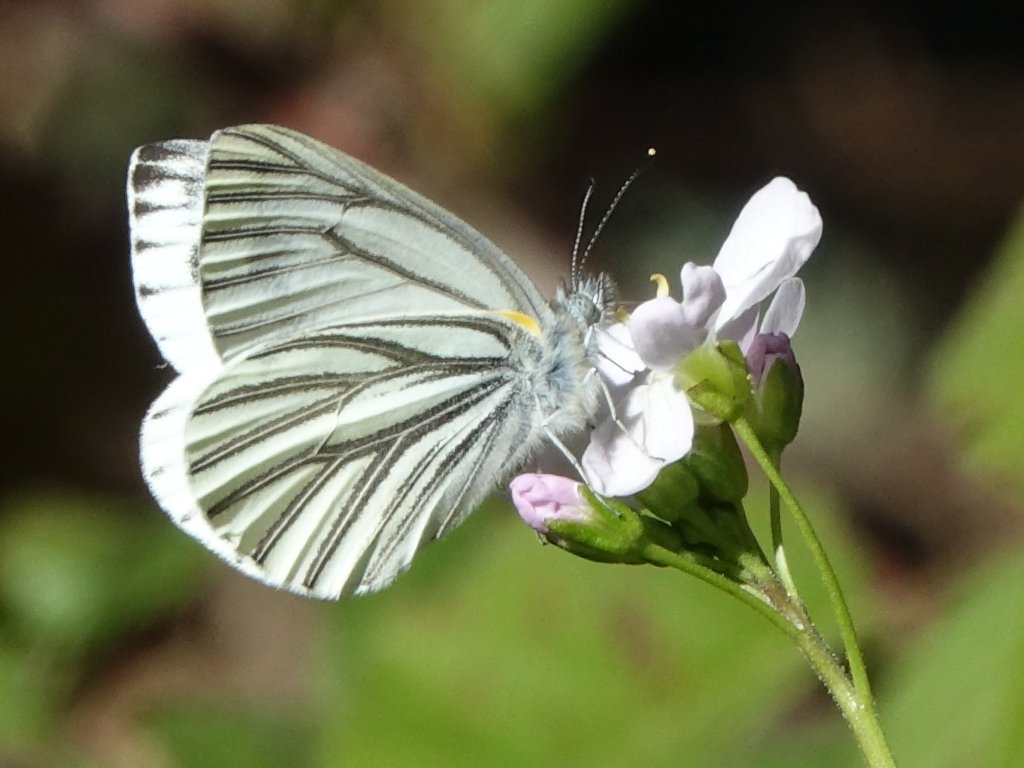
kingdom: Animalia
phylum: Arthropoda
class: Insecta
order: Lepidoptera
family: Pieridae
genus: Pieris
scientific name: Pieris marginalis
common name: Margined White
